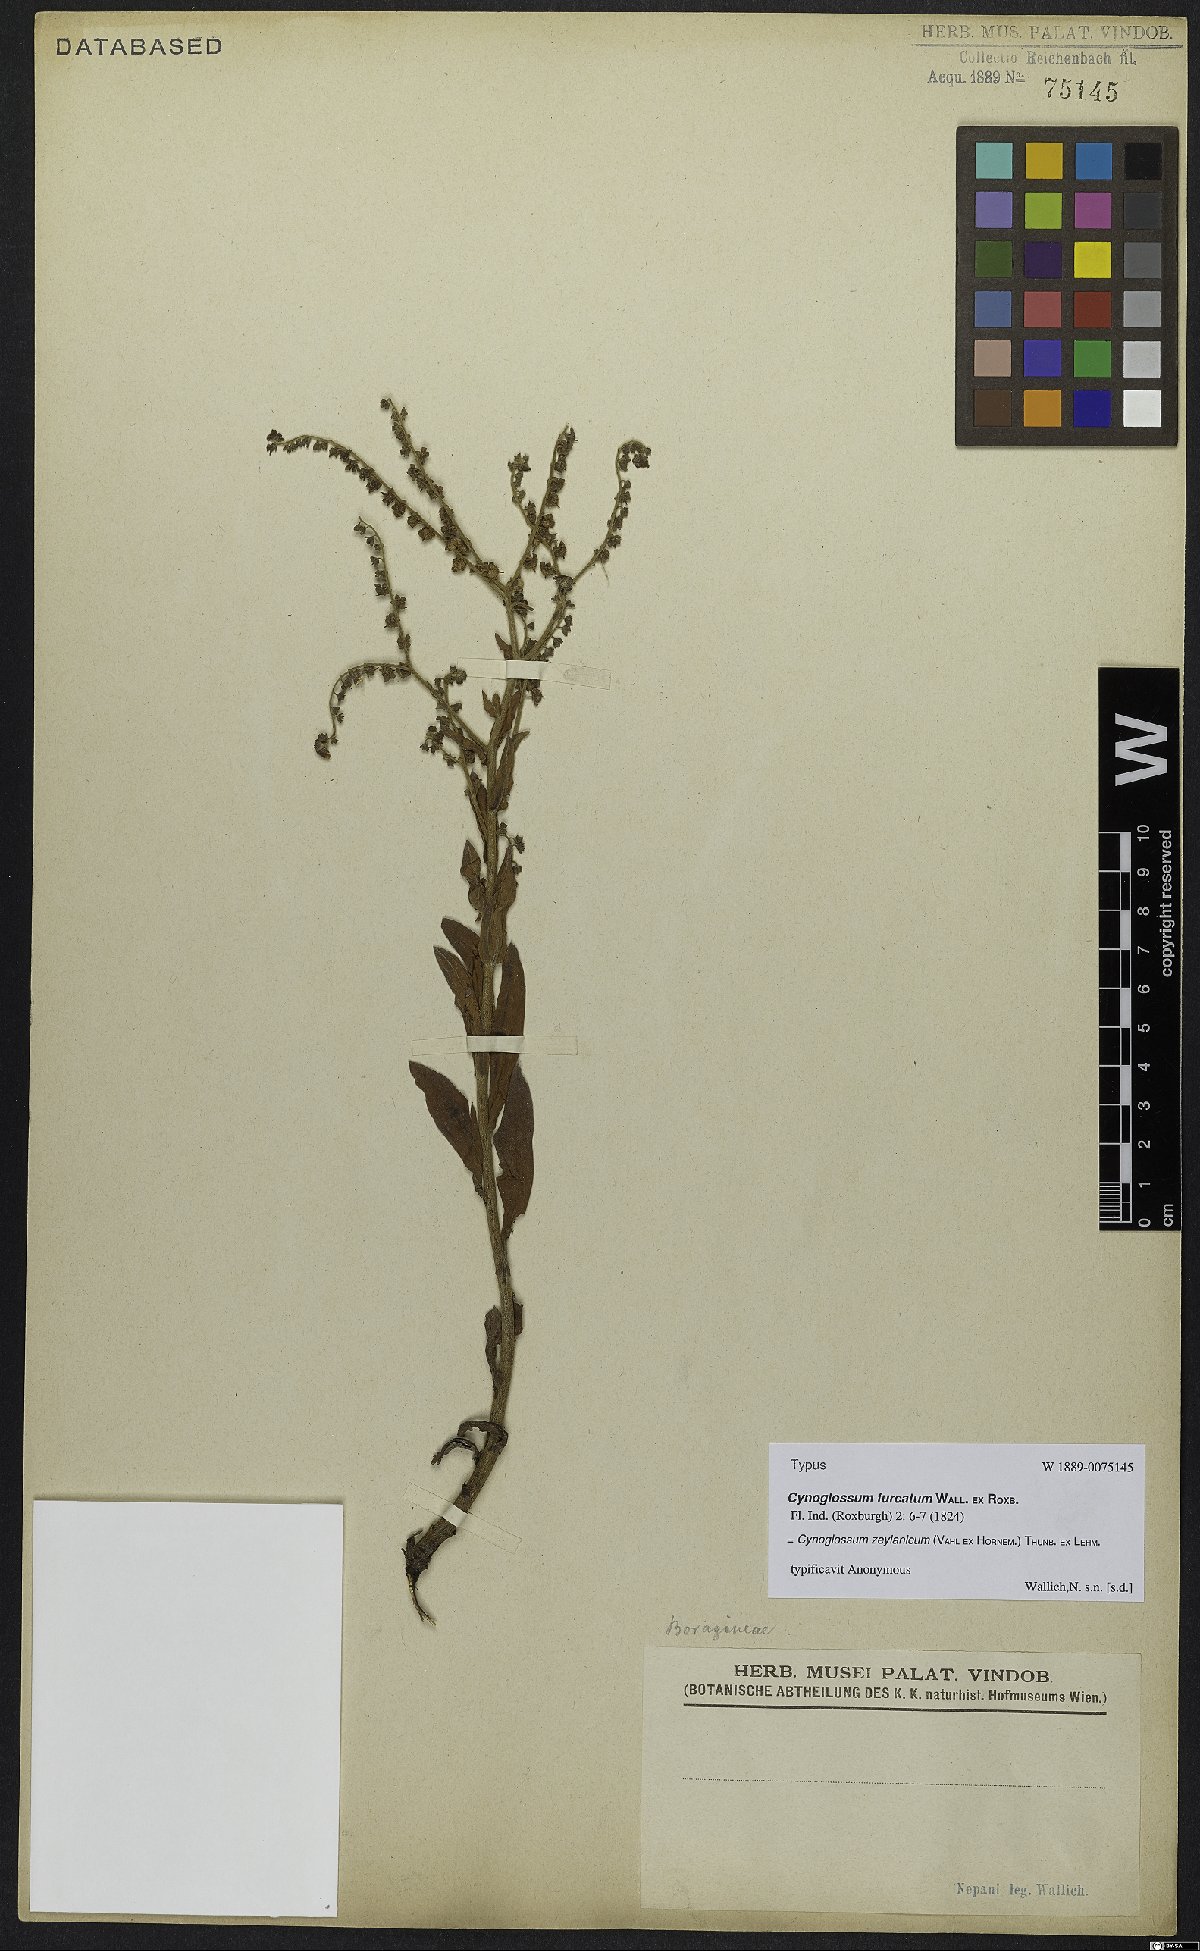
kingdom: Plantae
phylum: Tracheophyta
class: Magnoliopsida
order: Boraginales
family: Boraginaceae
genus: Cynoglossum
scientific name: Cynoglossum zeylanicum
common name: Ceylon hound's tongue
